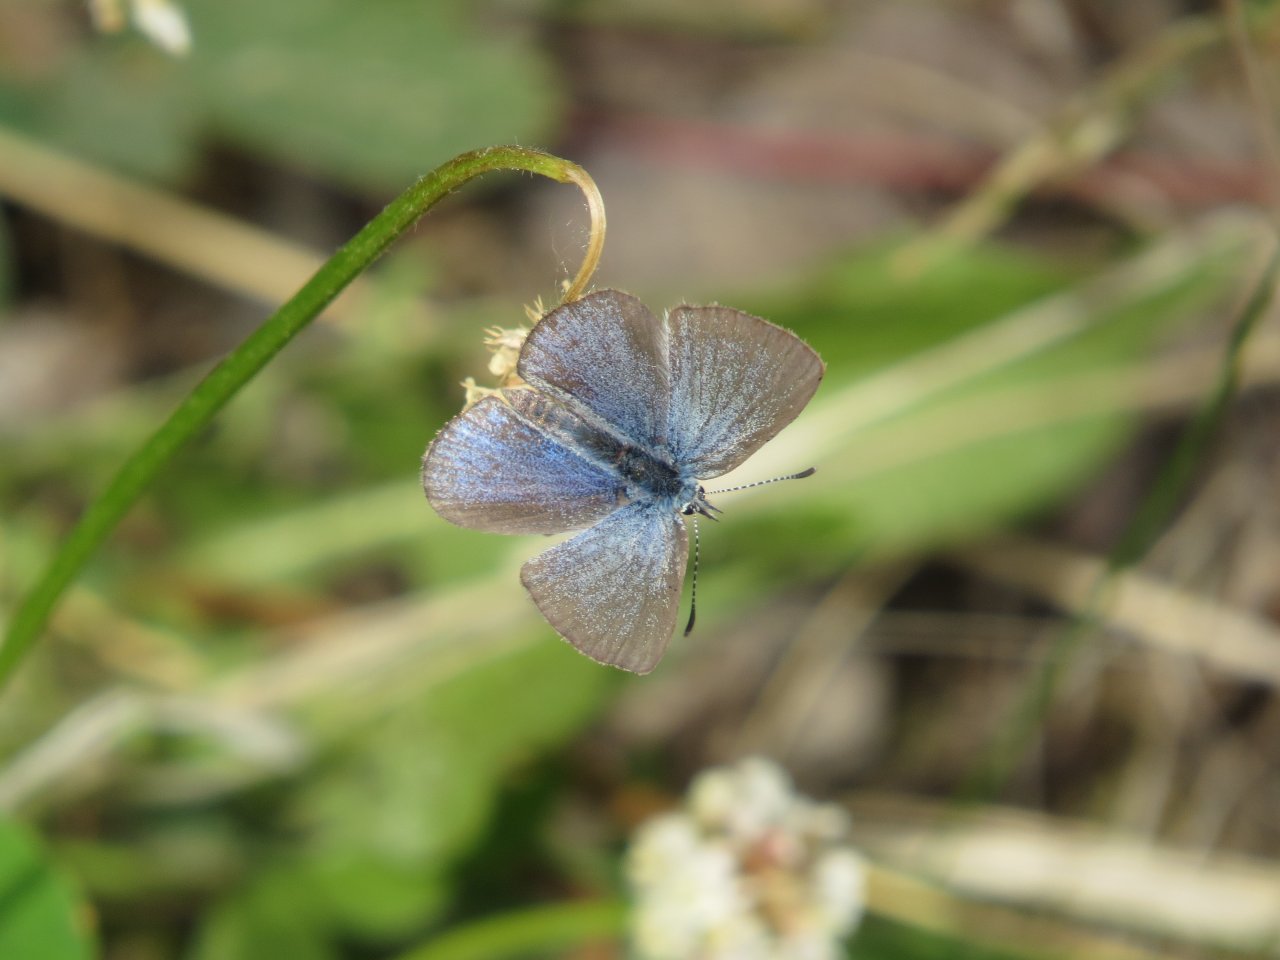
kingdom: Animalia
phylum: Arthropoda
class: Insecta
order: Lepidoptera
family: Lycaenidae
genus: Glaucopsyche
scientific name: Glaucopsyche lygdamus
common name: Silvery Blue
